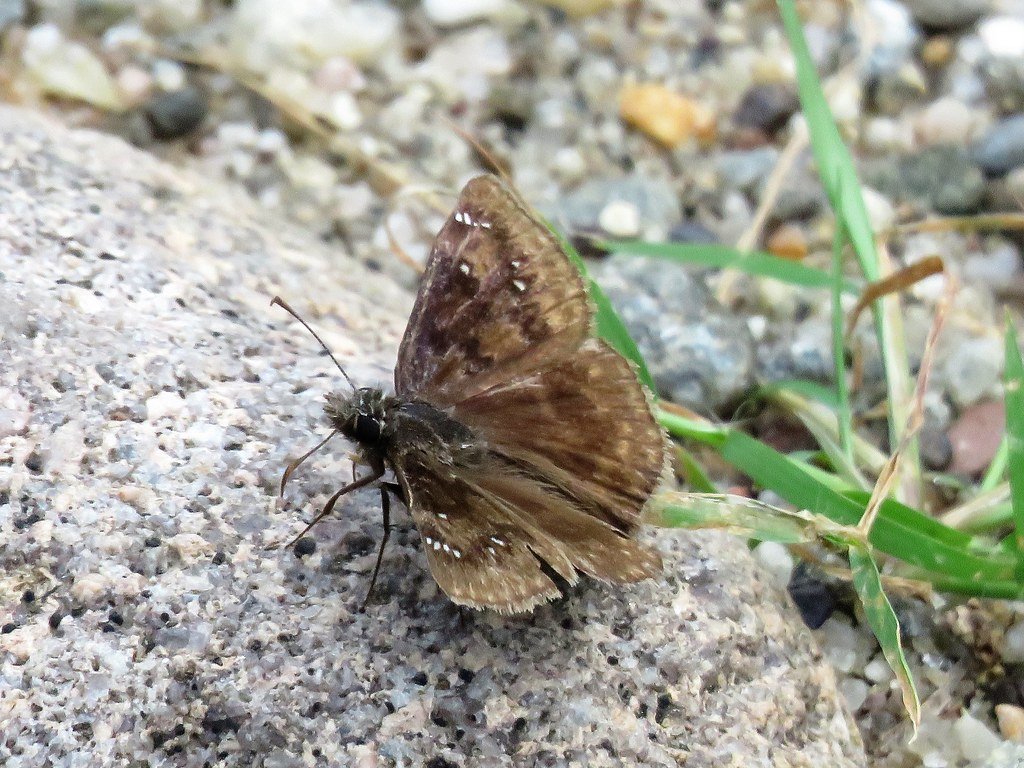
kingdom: Animalia
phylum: Arthropoda
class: Insecta
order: Lepidoptera
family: Hesperiidae
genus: Gesta
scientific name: Gesta
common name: Horace's Duskywing
